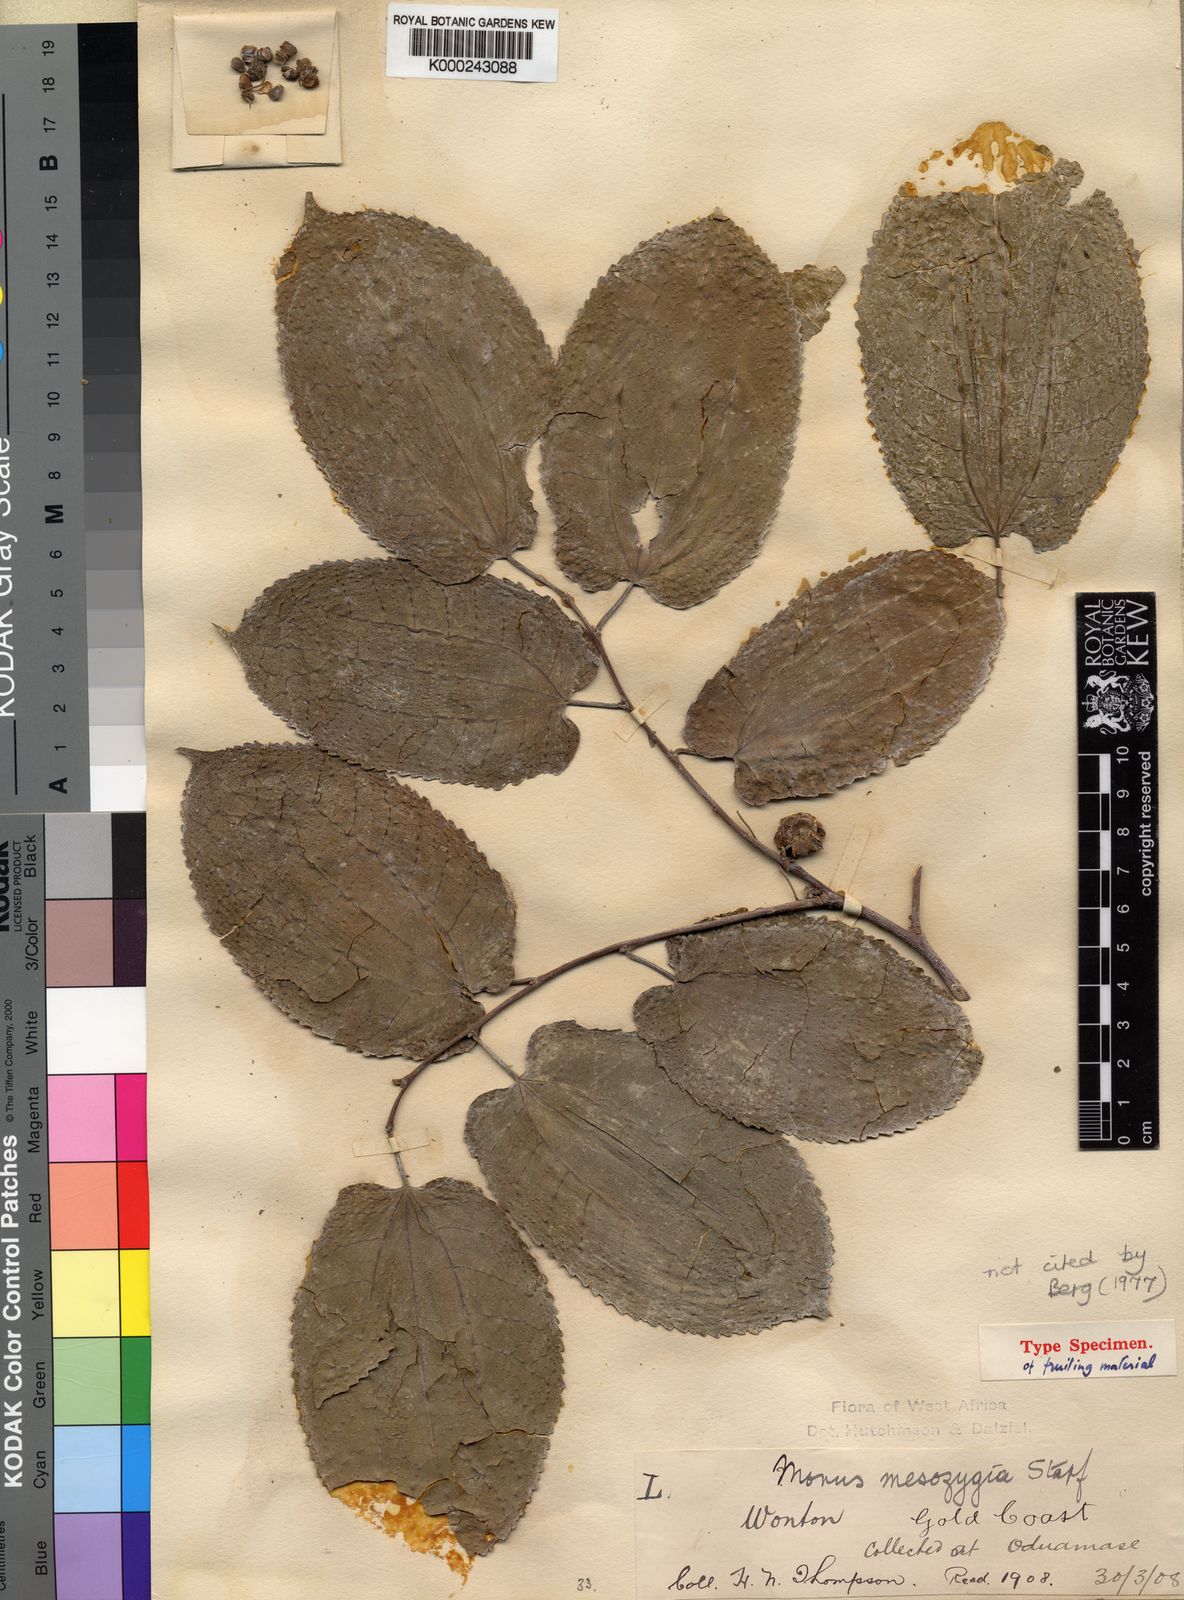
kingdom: Plantae
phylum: Tracheophyta
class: Magnoliopsida
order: Rosales
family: Moraceae
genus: Morus
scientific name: Morus
